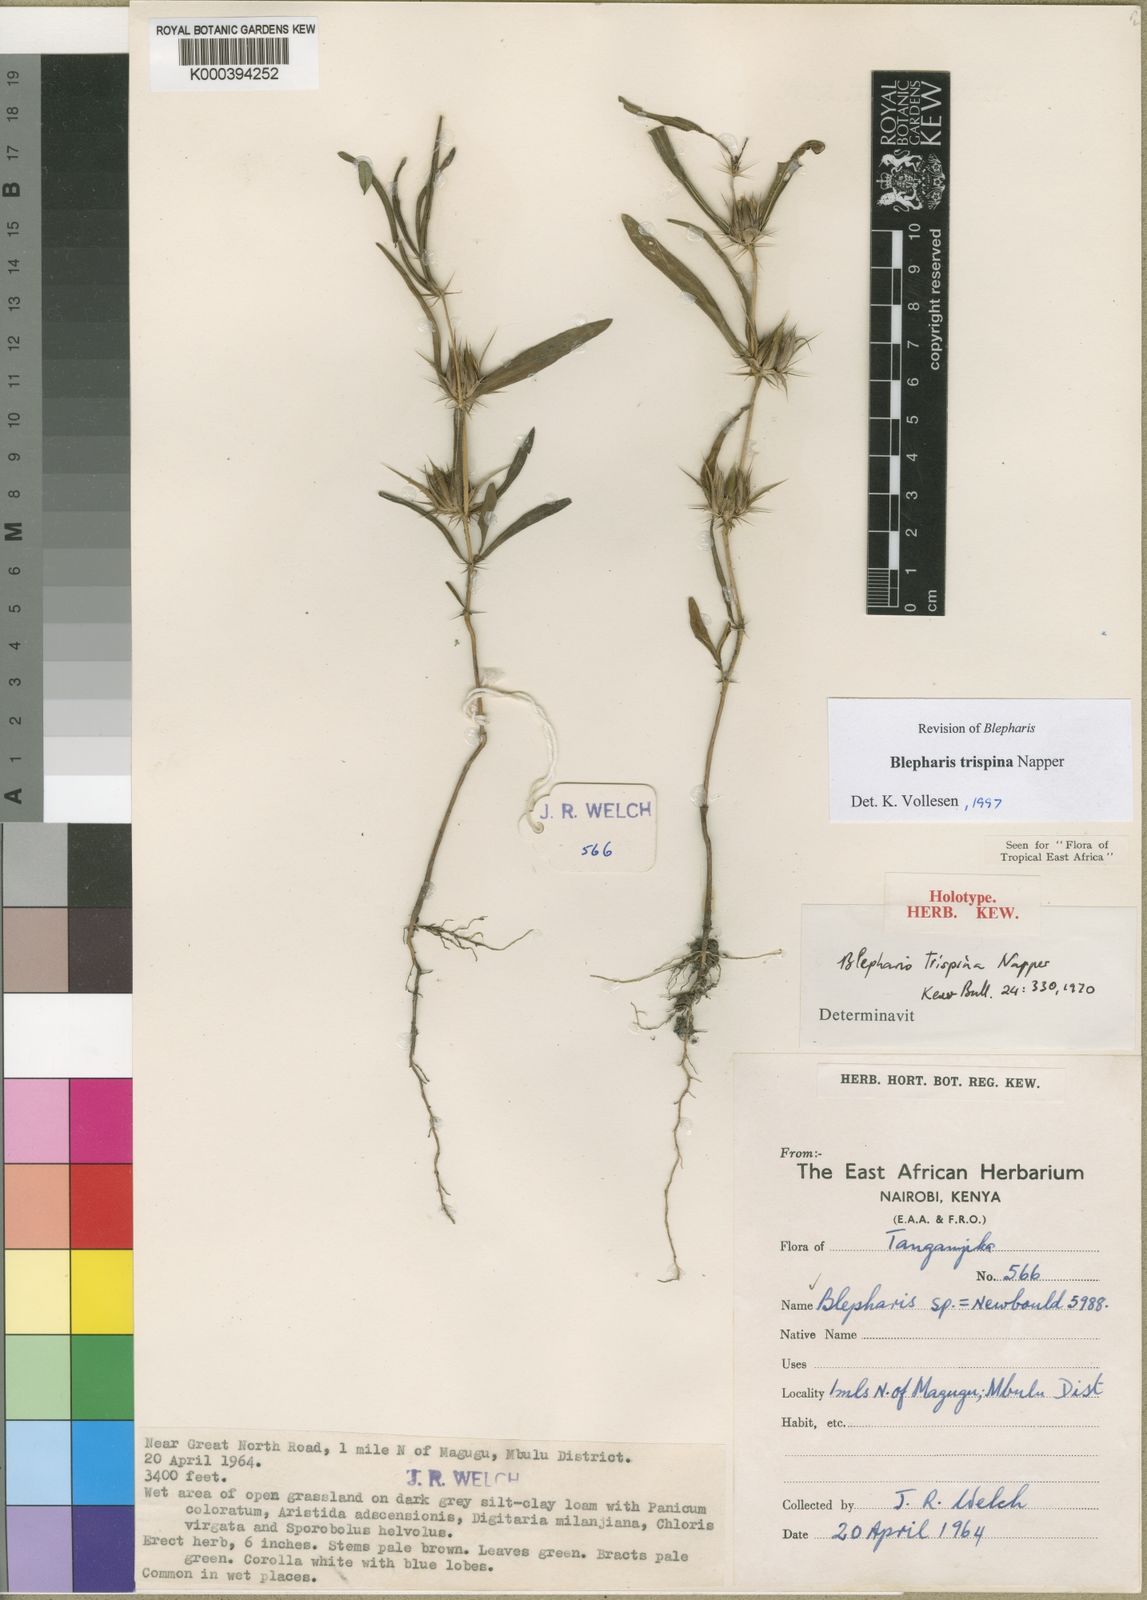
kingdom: Plantae
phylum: Tracheophyta
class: Magnoliopsida
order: Lamiales
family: Acanthaceae
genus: Blepharis
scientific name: Blepharis trispina
